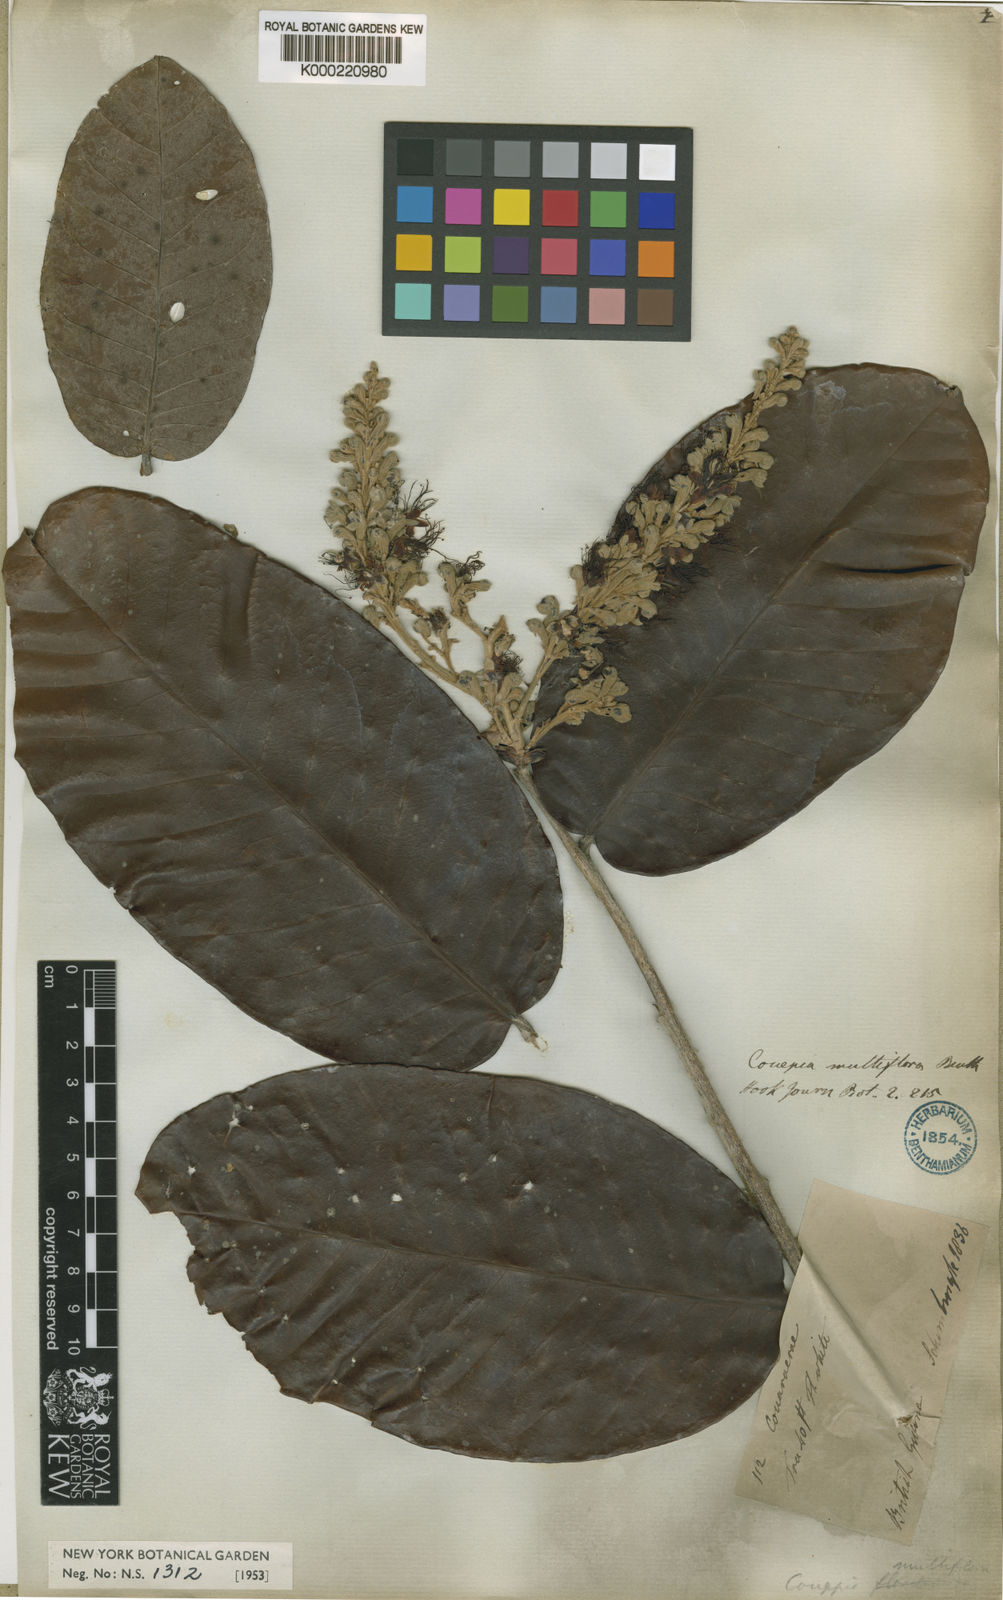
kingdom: Plantae
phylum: Tracheophyta
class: Magnoliopsida
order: Malpighiales
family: Chrysobalanaceae
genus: Couepia
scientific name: Couepia multiflora
